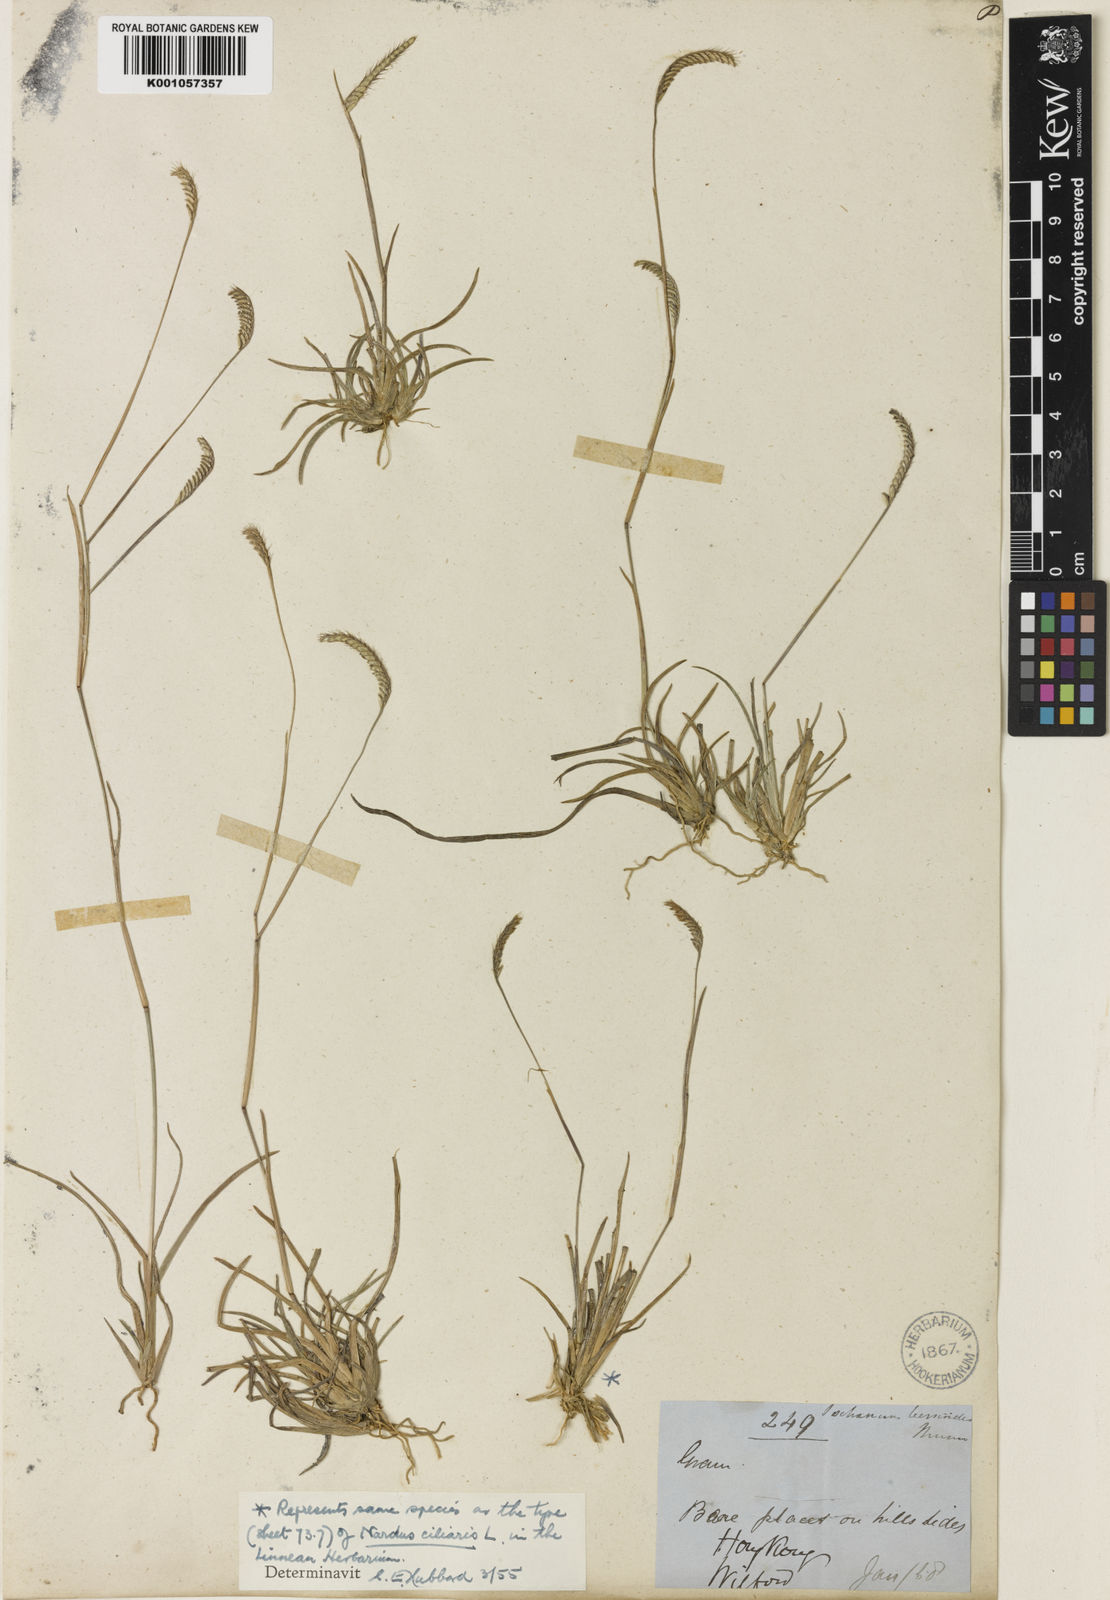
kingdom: Plantae
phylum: Tracheophyta
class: Liliopsida
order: Poales
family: Poaceae
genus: Eremochloa
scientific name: Eremochloa ciliaris
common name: Fringed centipede grass
